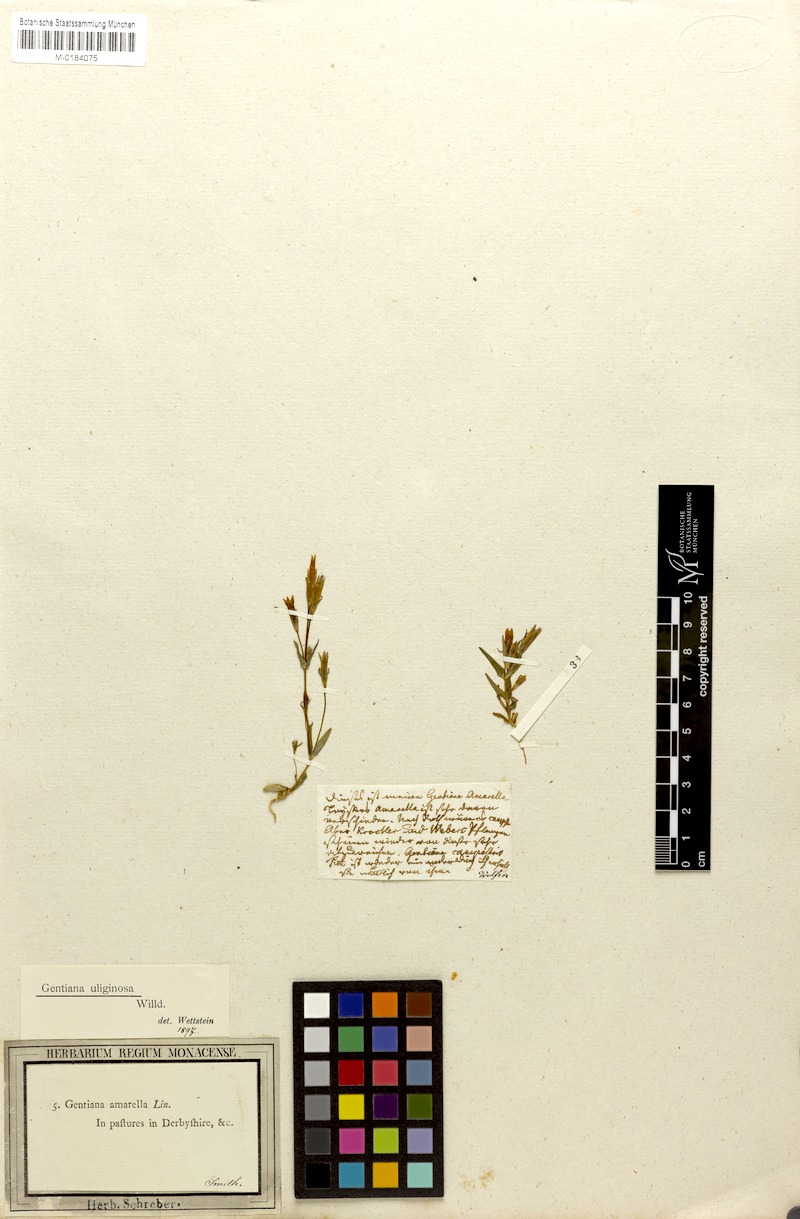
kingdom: Plantae
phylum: Tracheophyta
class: Magnoliopsida
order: Gentianales
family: Gentianaceae
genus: Gentianella
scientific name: Gentianella uliginosa
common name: Dune gentian
